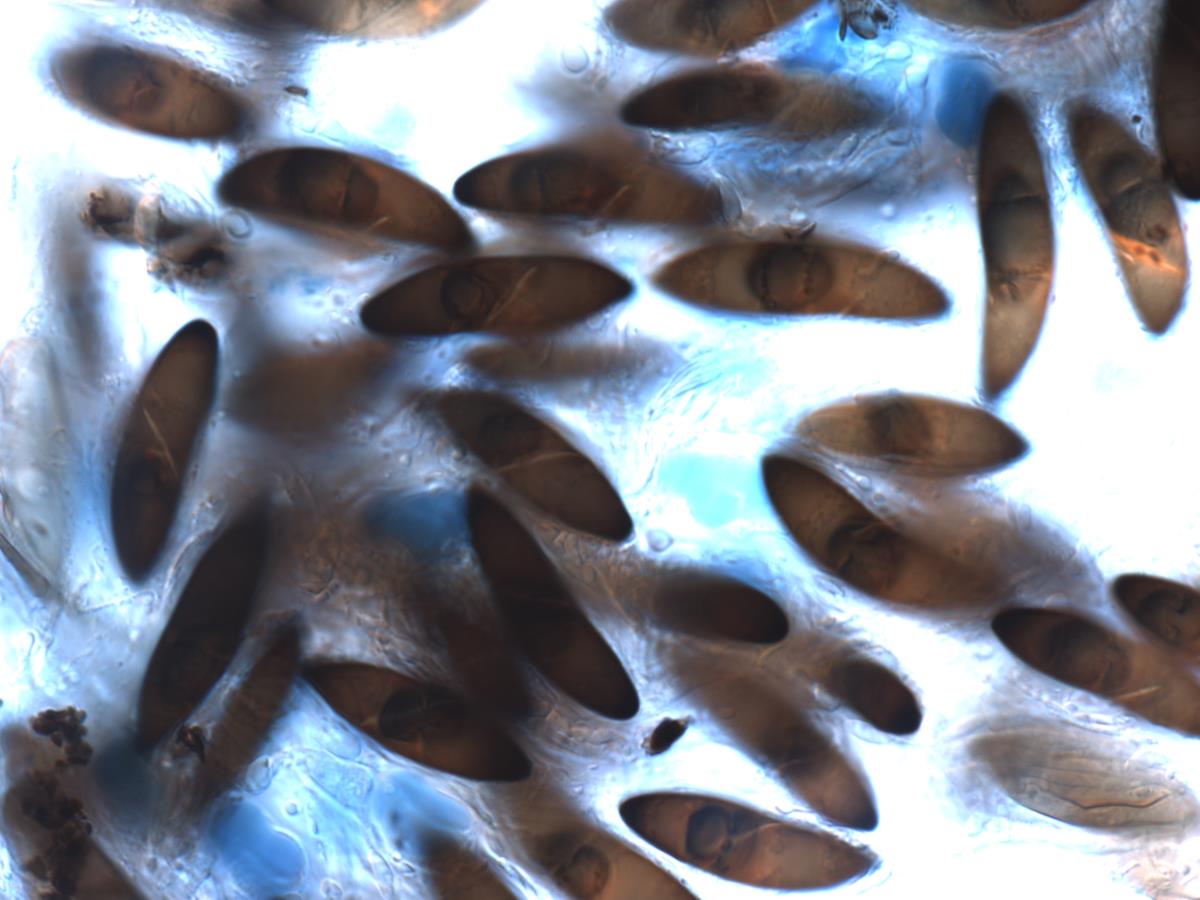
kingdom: Fungi
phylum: Ascomycota
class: Sordariomycetes
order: Xylariales
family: Xylariaceae
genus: Kretzschmaria
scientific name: Kretzschmaria
